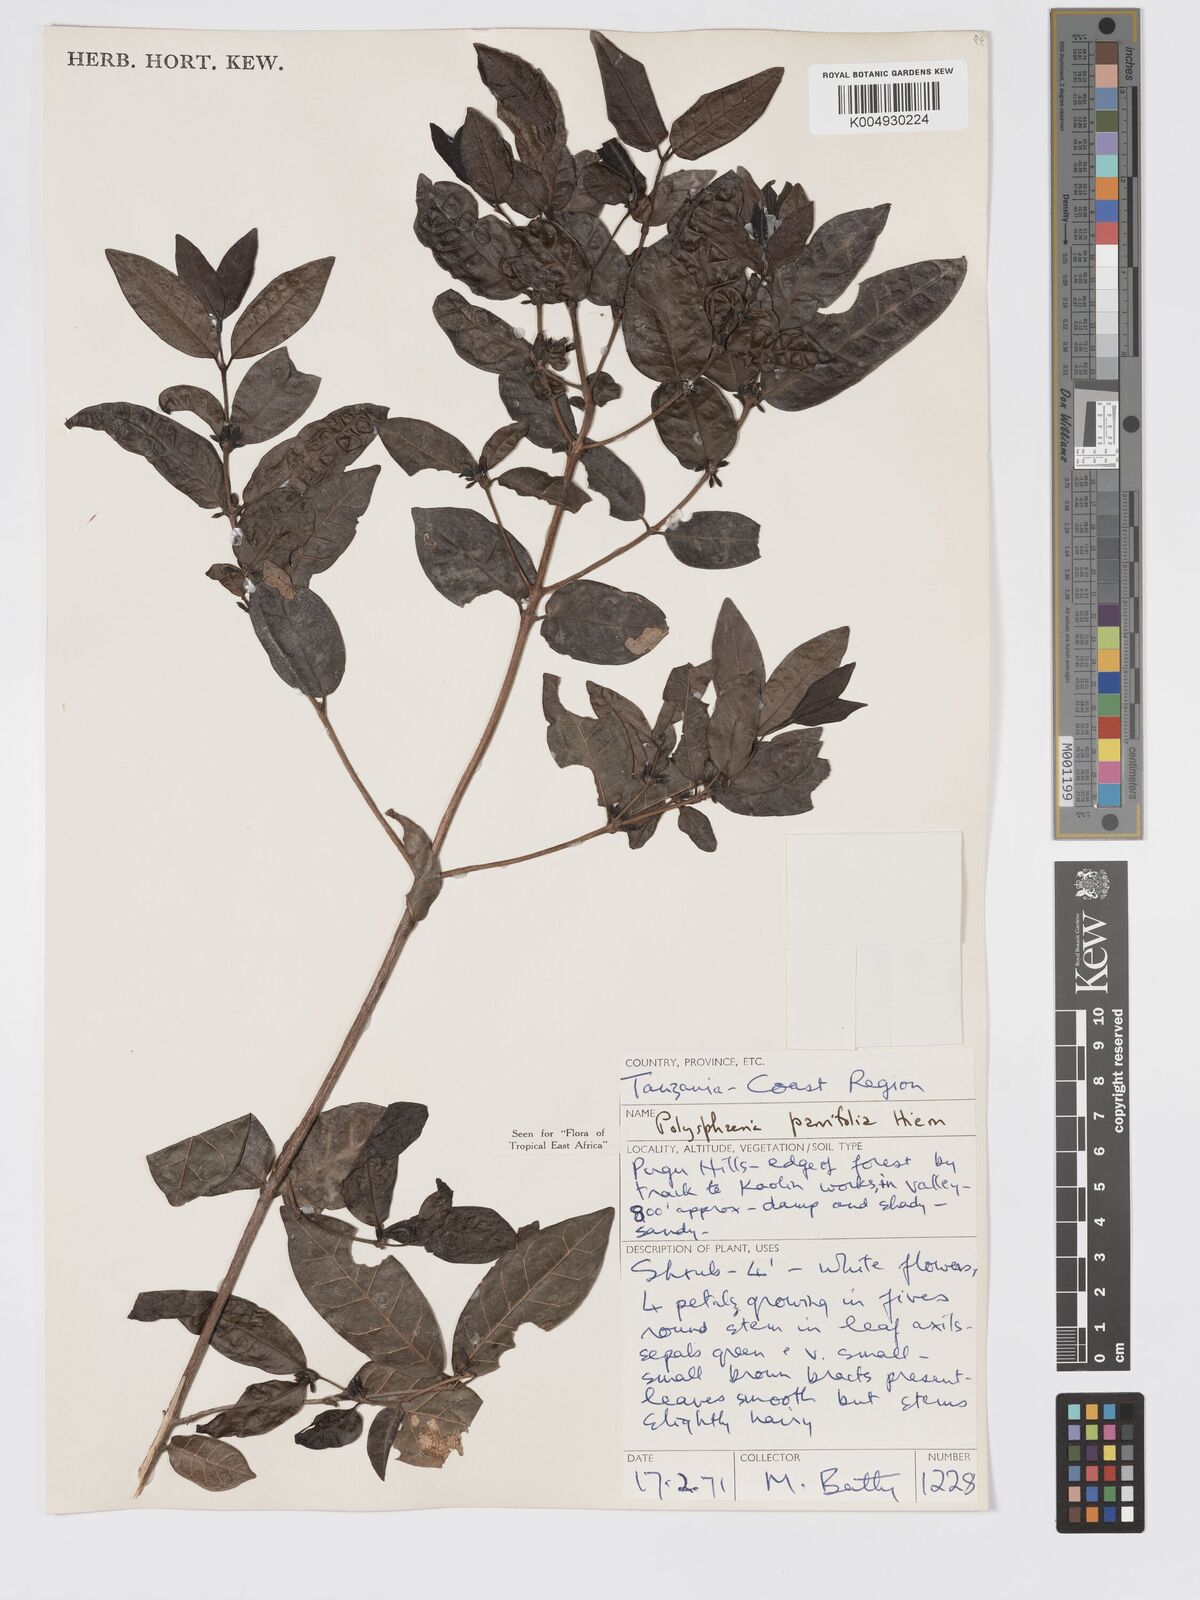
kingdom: Plantae
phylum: Tracheophyta
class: Magnoliopsida
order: Gentianales
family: Rubiaceae
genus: Polysphaeria
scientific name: Polysphaeria parvifolia
